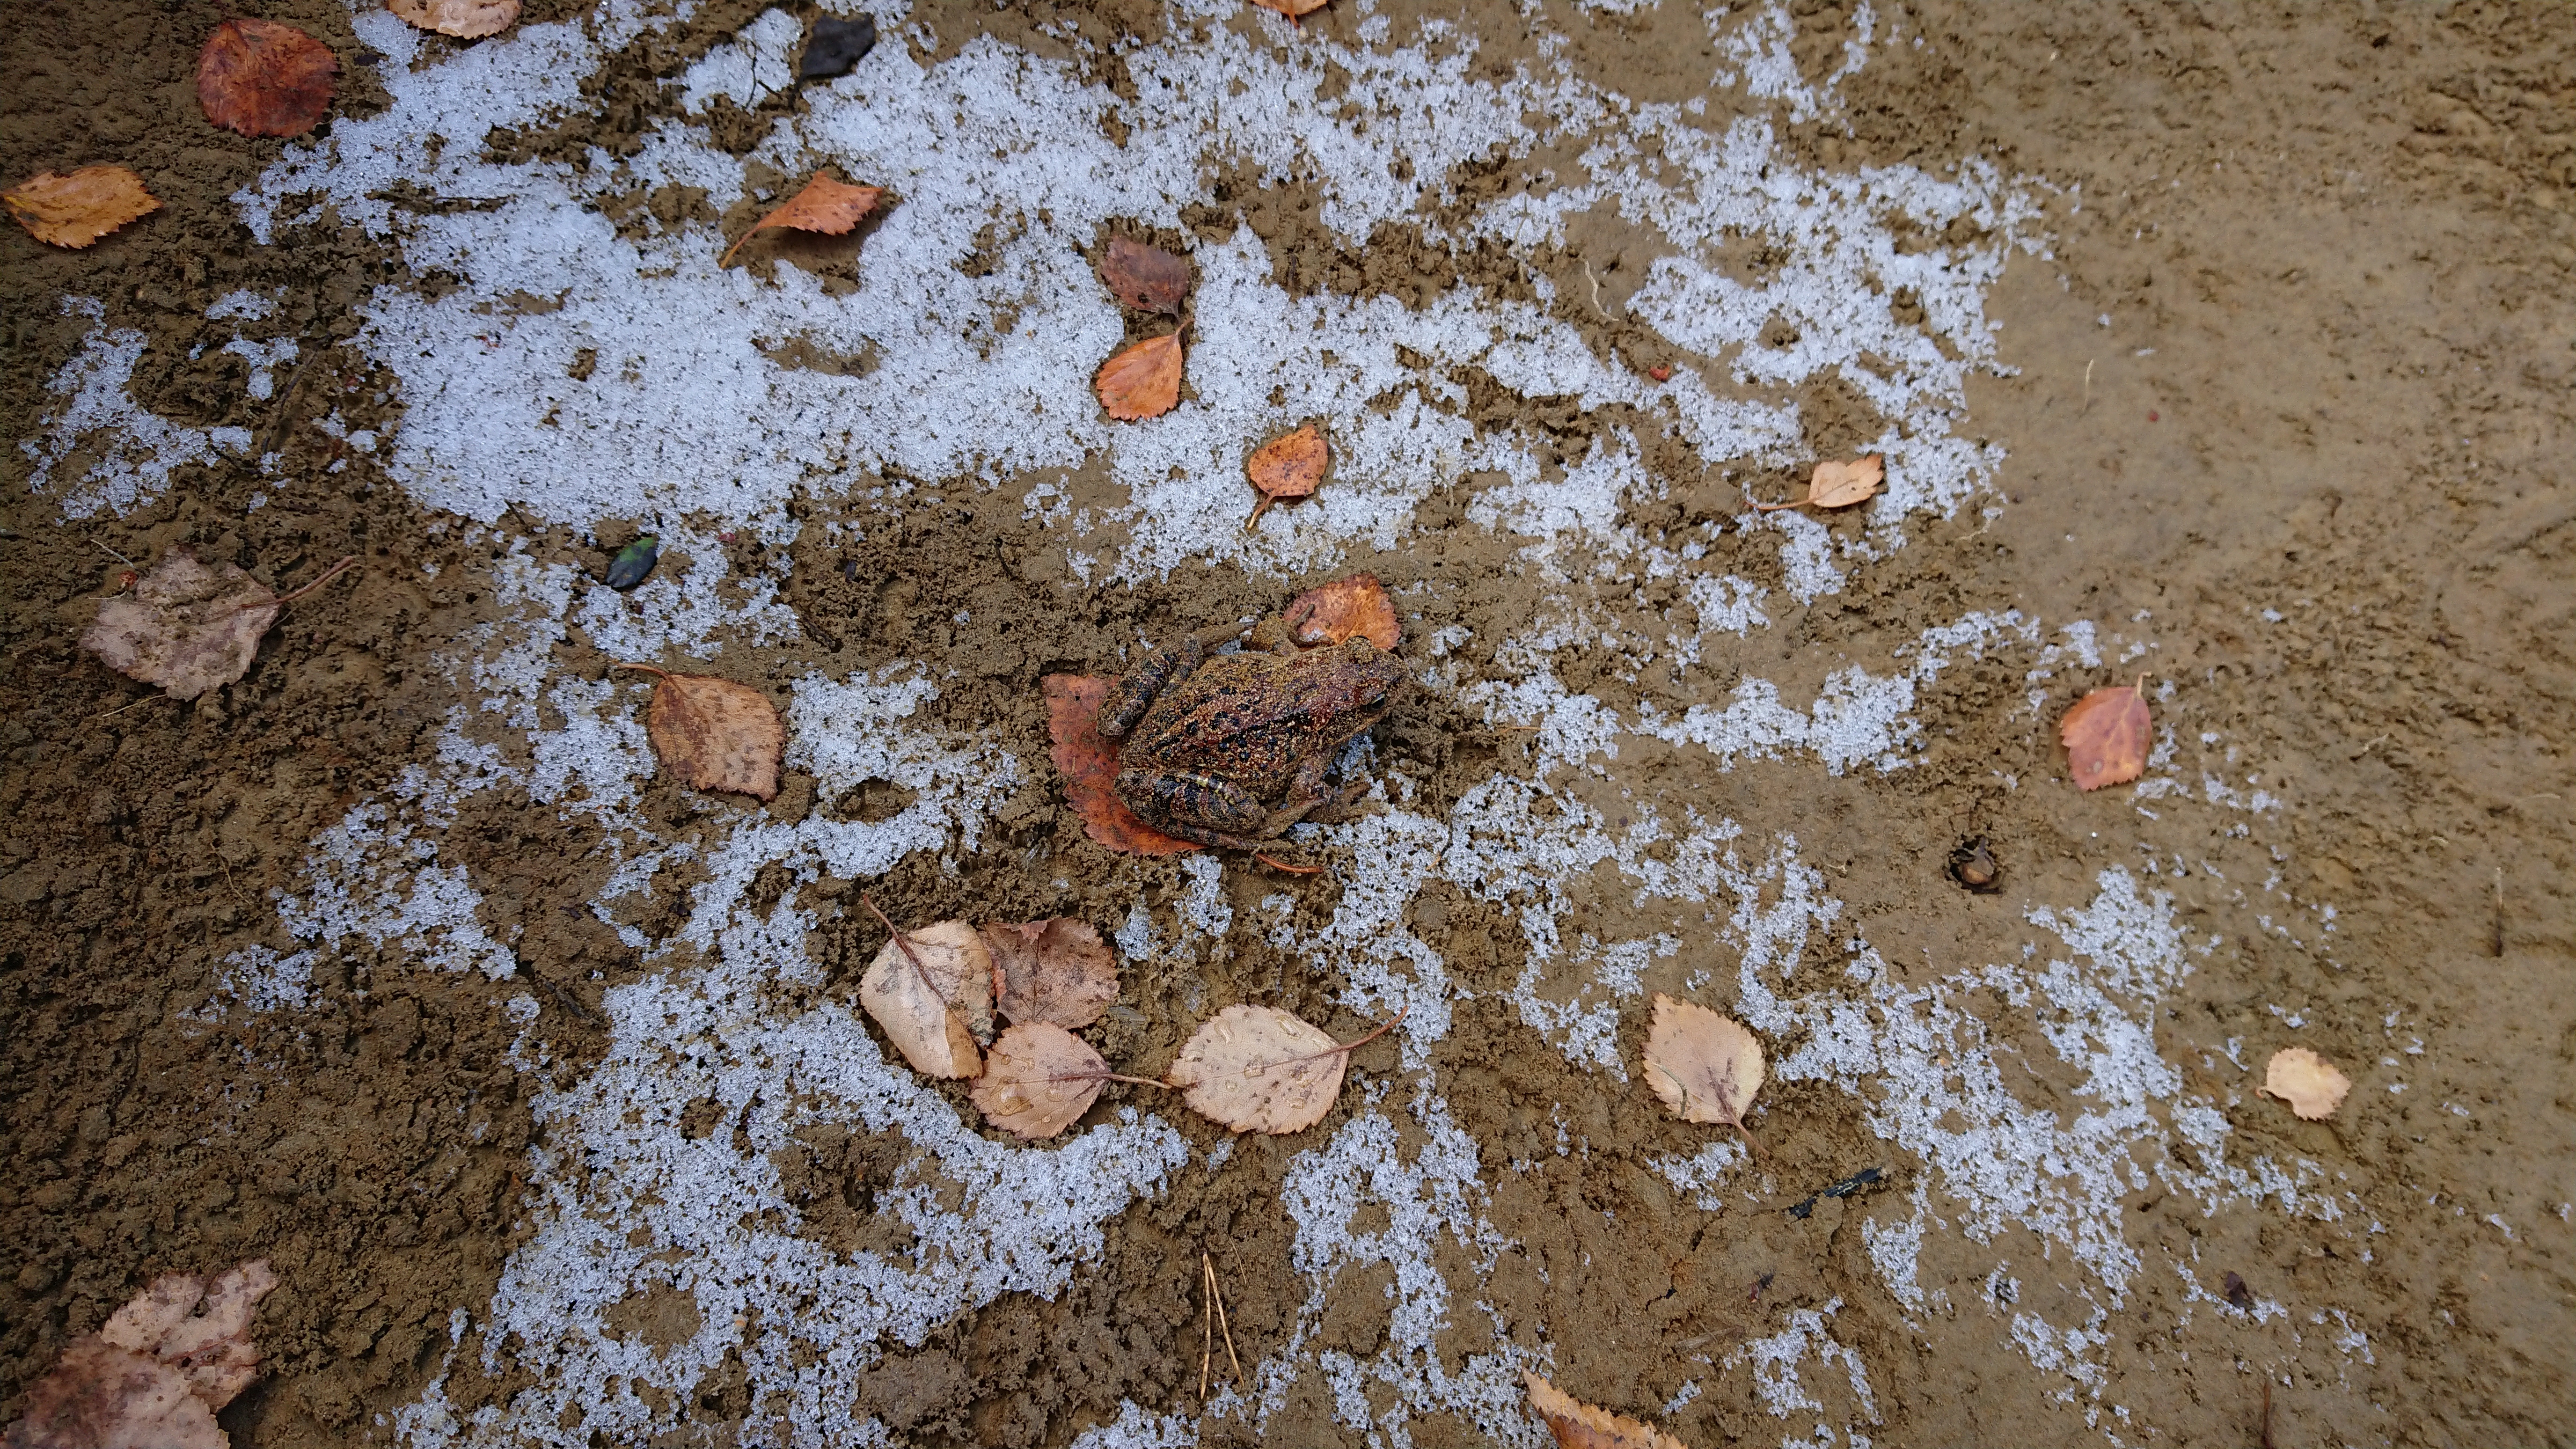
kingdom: Animalia
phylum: Chordata
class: Amphibia
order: Anura
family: Ranidae
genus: Rana
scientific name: Rana temporaria
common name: Common frog
